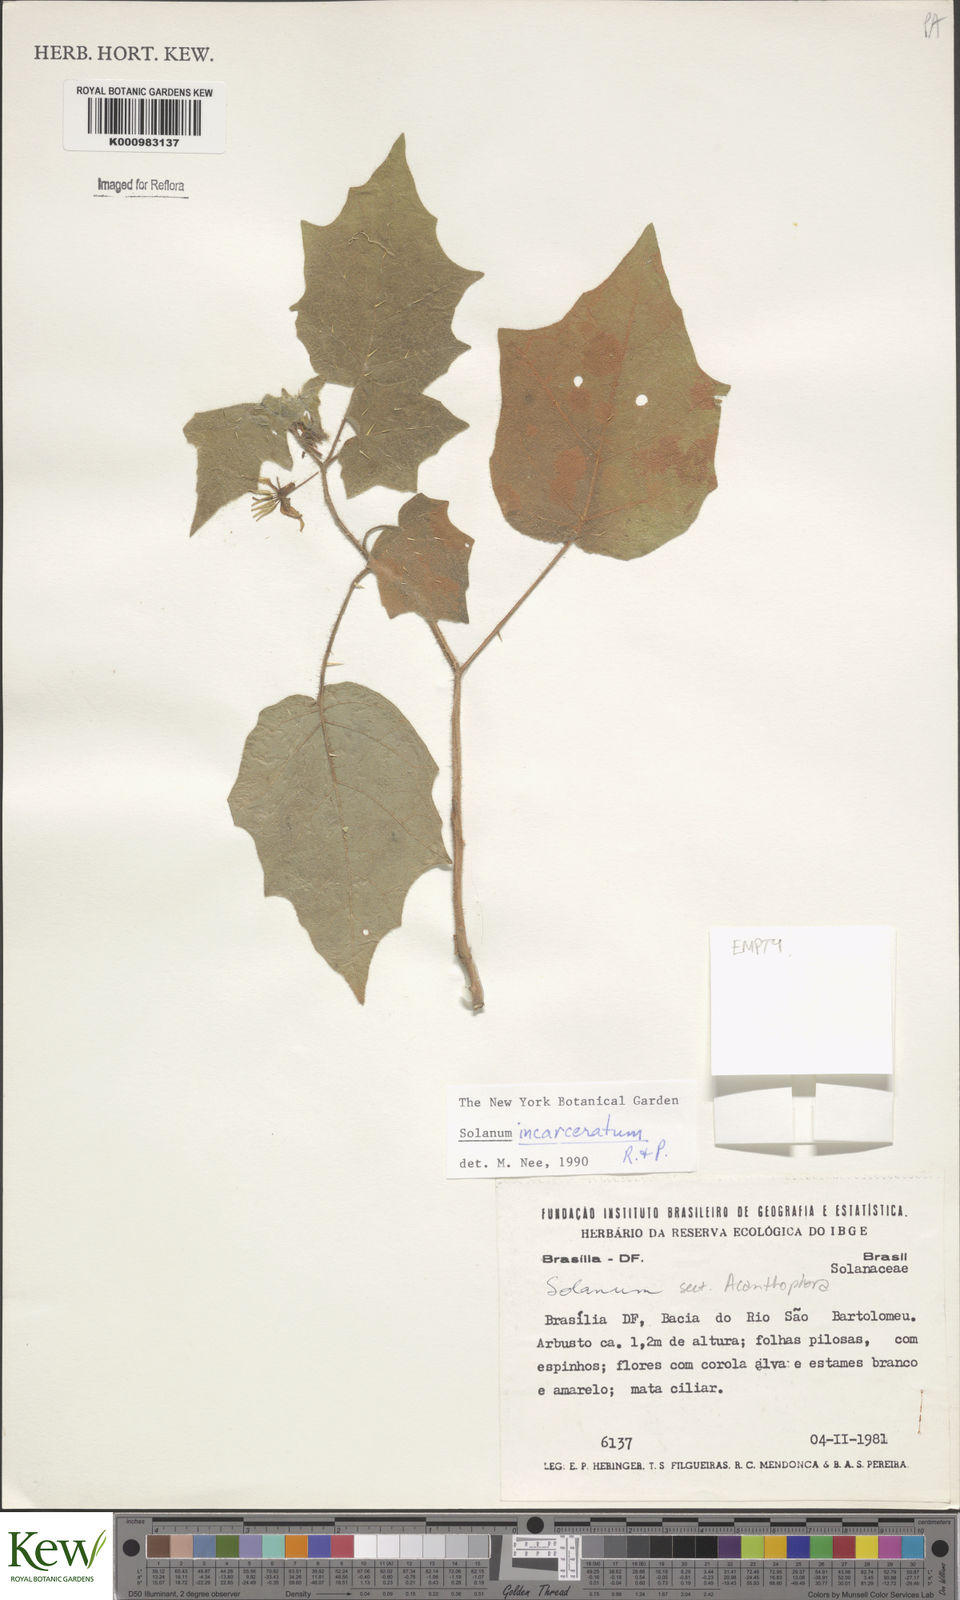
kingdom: Plantae
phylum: Tracheophyta
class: Magnoliopsida
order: Solanales
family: Solanaceae
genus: Solanum
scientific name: Solanum incarceratum
